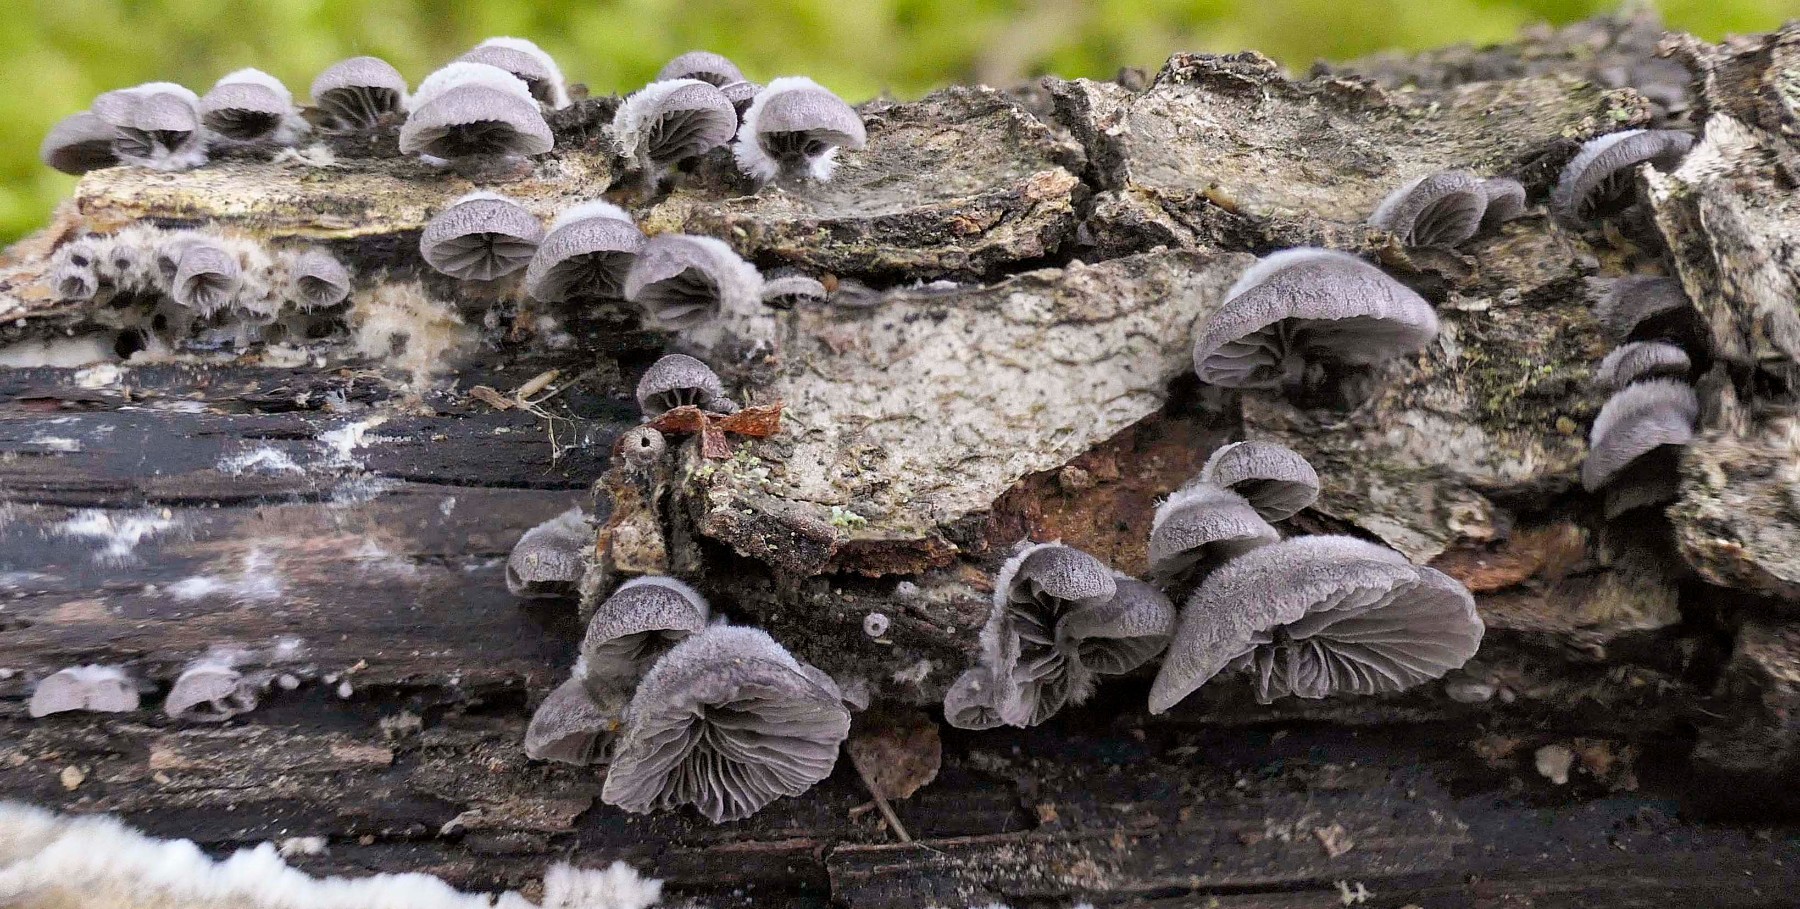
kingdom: Fungi
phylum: Basidiomycota
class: Agaricomycetes
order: Agaricales
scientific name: Agaricales
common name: champignonordenen
